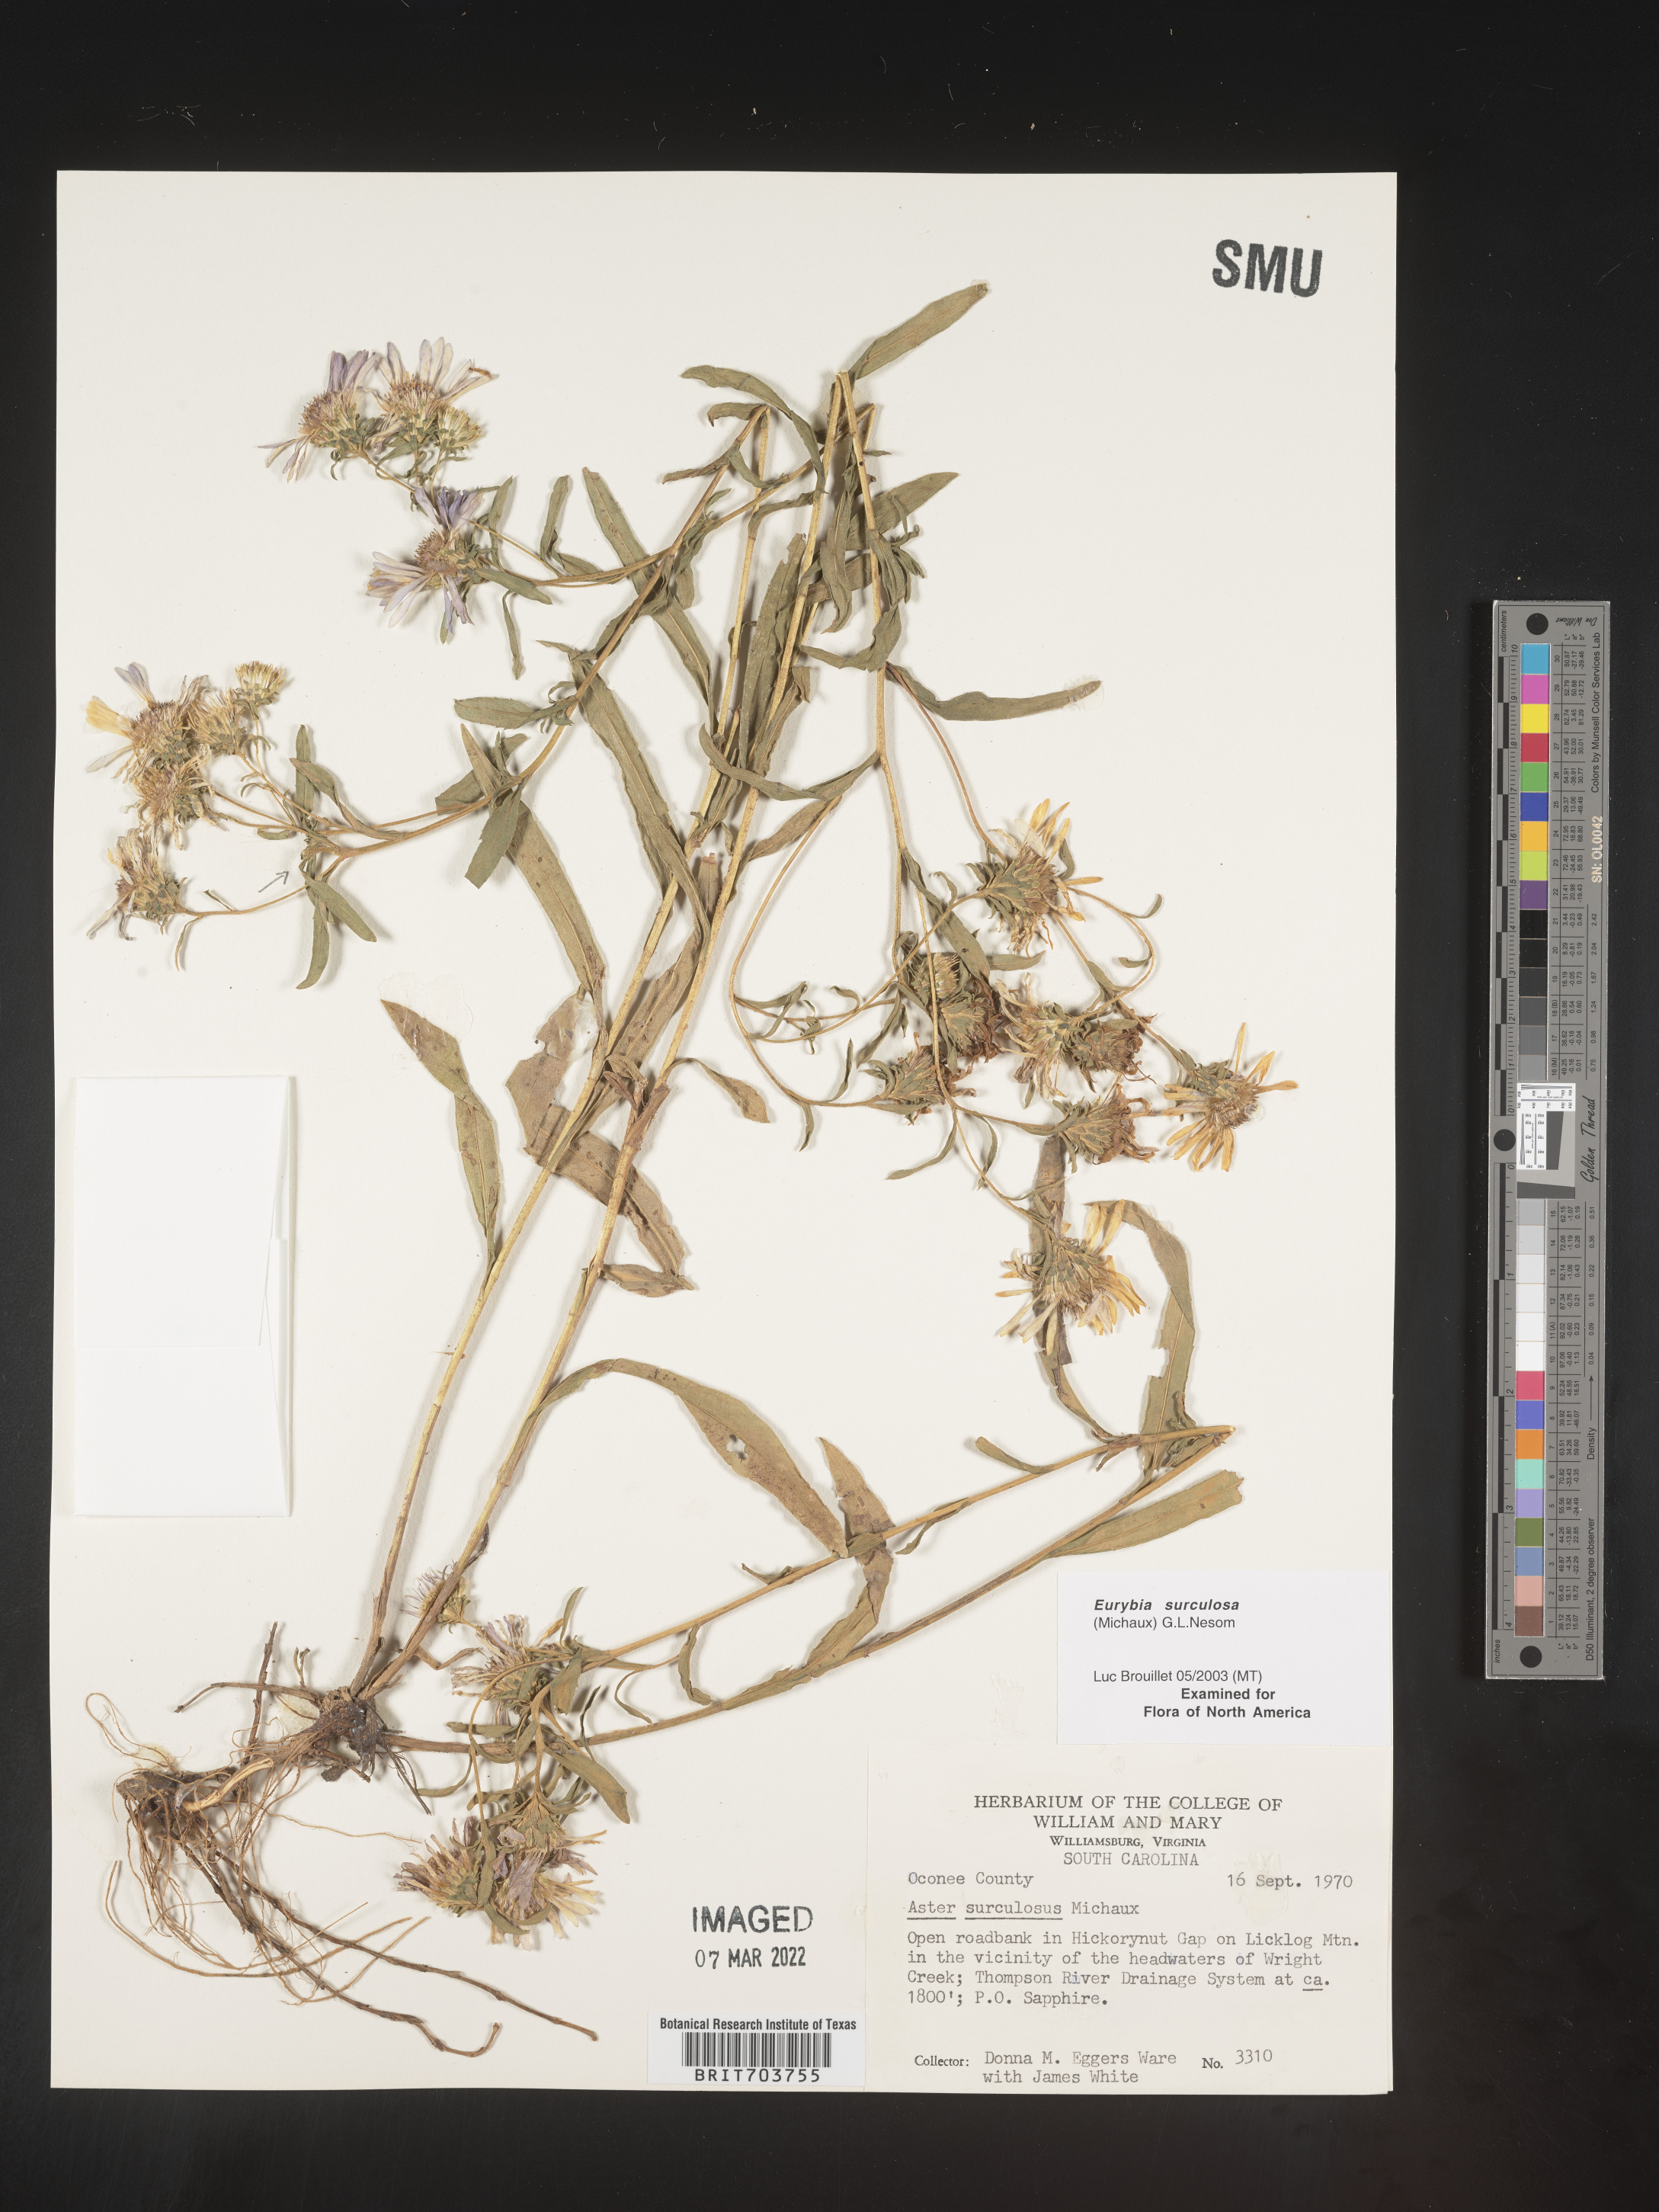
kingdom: Plantae
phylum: Tracheophyta
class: Magnoliopsida
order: Asterales
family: Asteraceae
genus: Eurybia
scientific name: Eurybia surculosa
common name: Creeping aster
